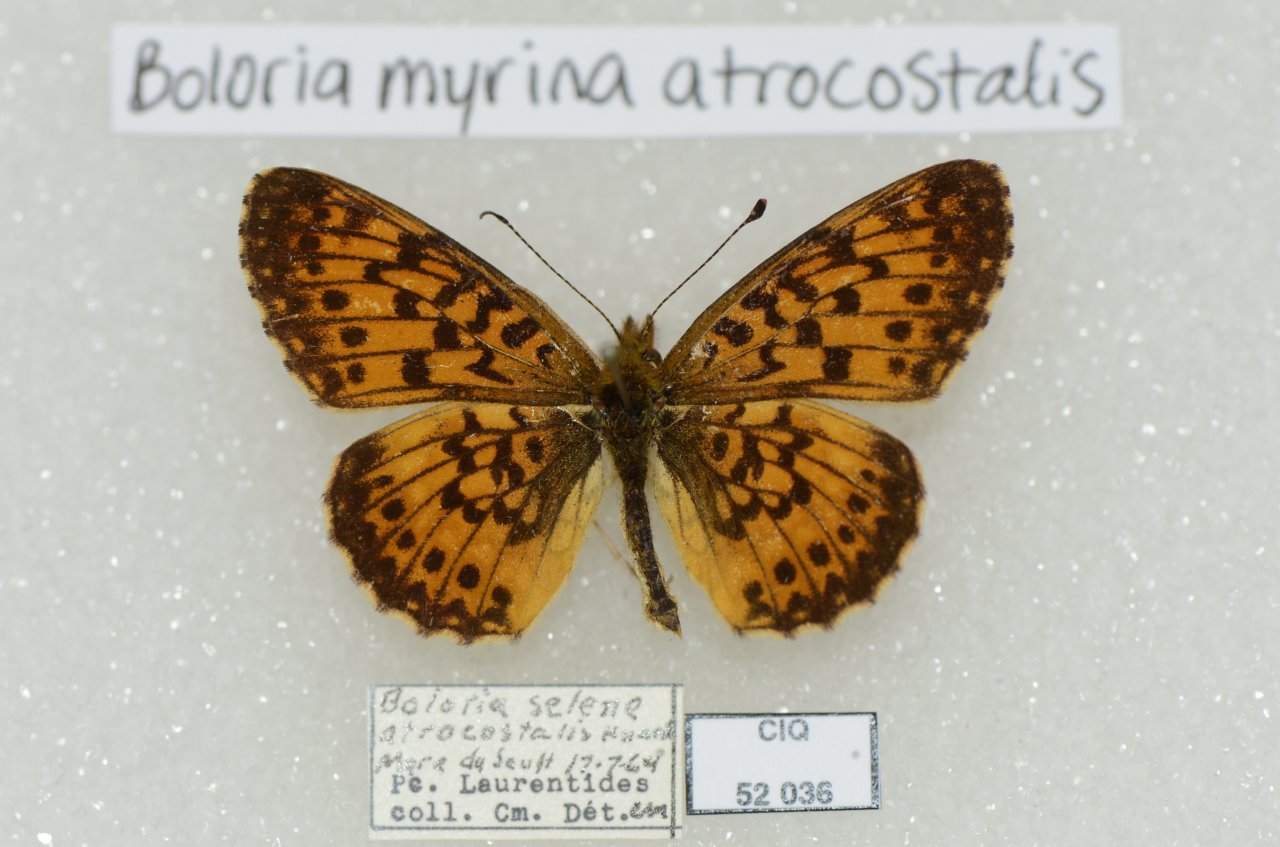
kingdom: Animalia
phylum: Arthropoda
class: Insecta
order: Lepidoptera
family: Nymphalidae
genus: Boloria
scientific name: Boloria selene
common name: Silver-bordered Fritillary
